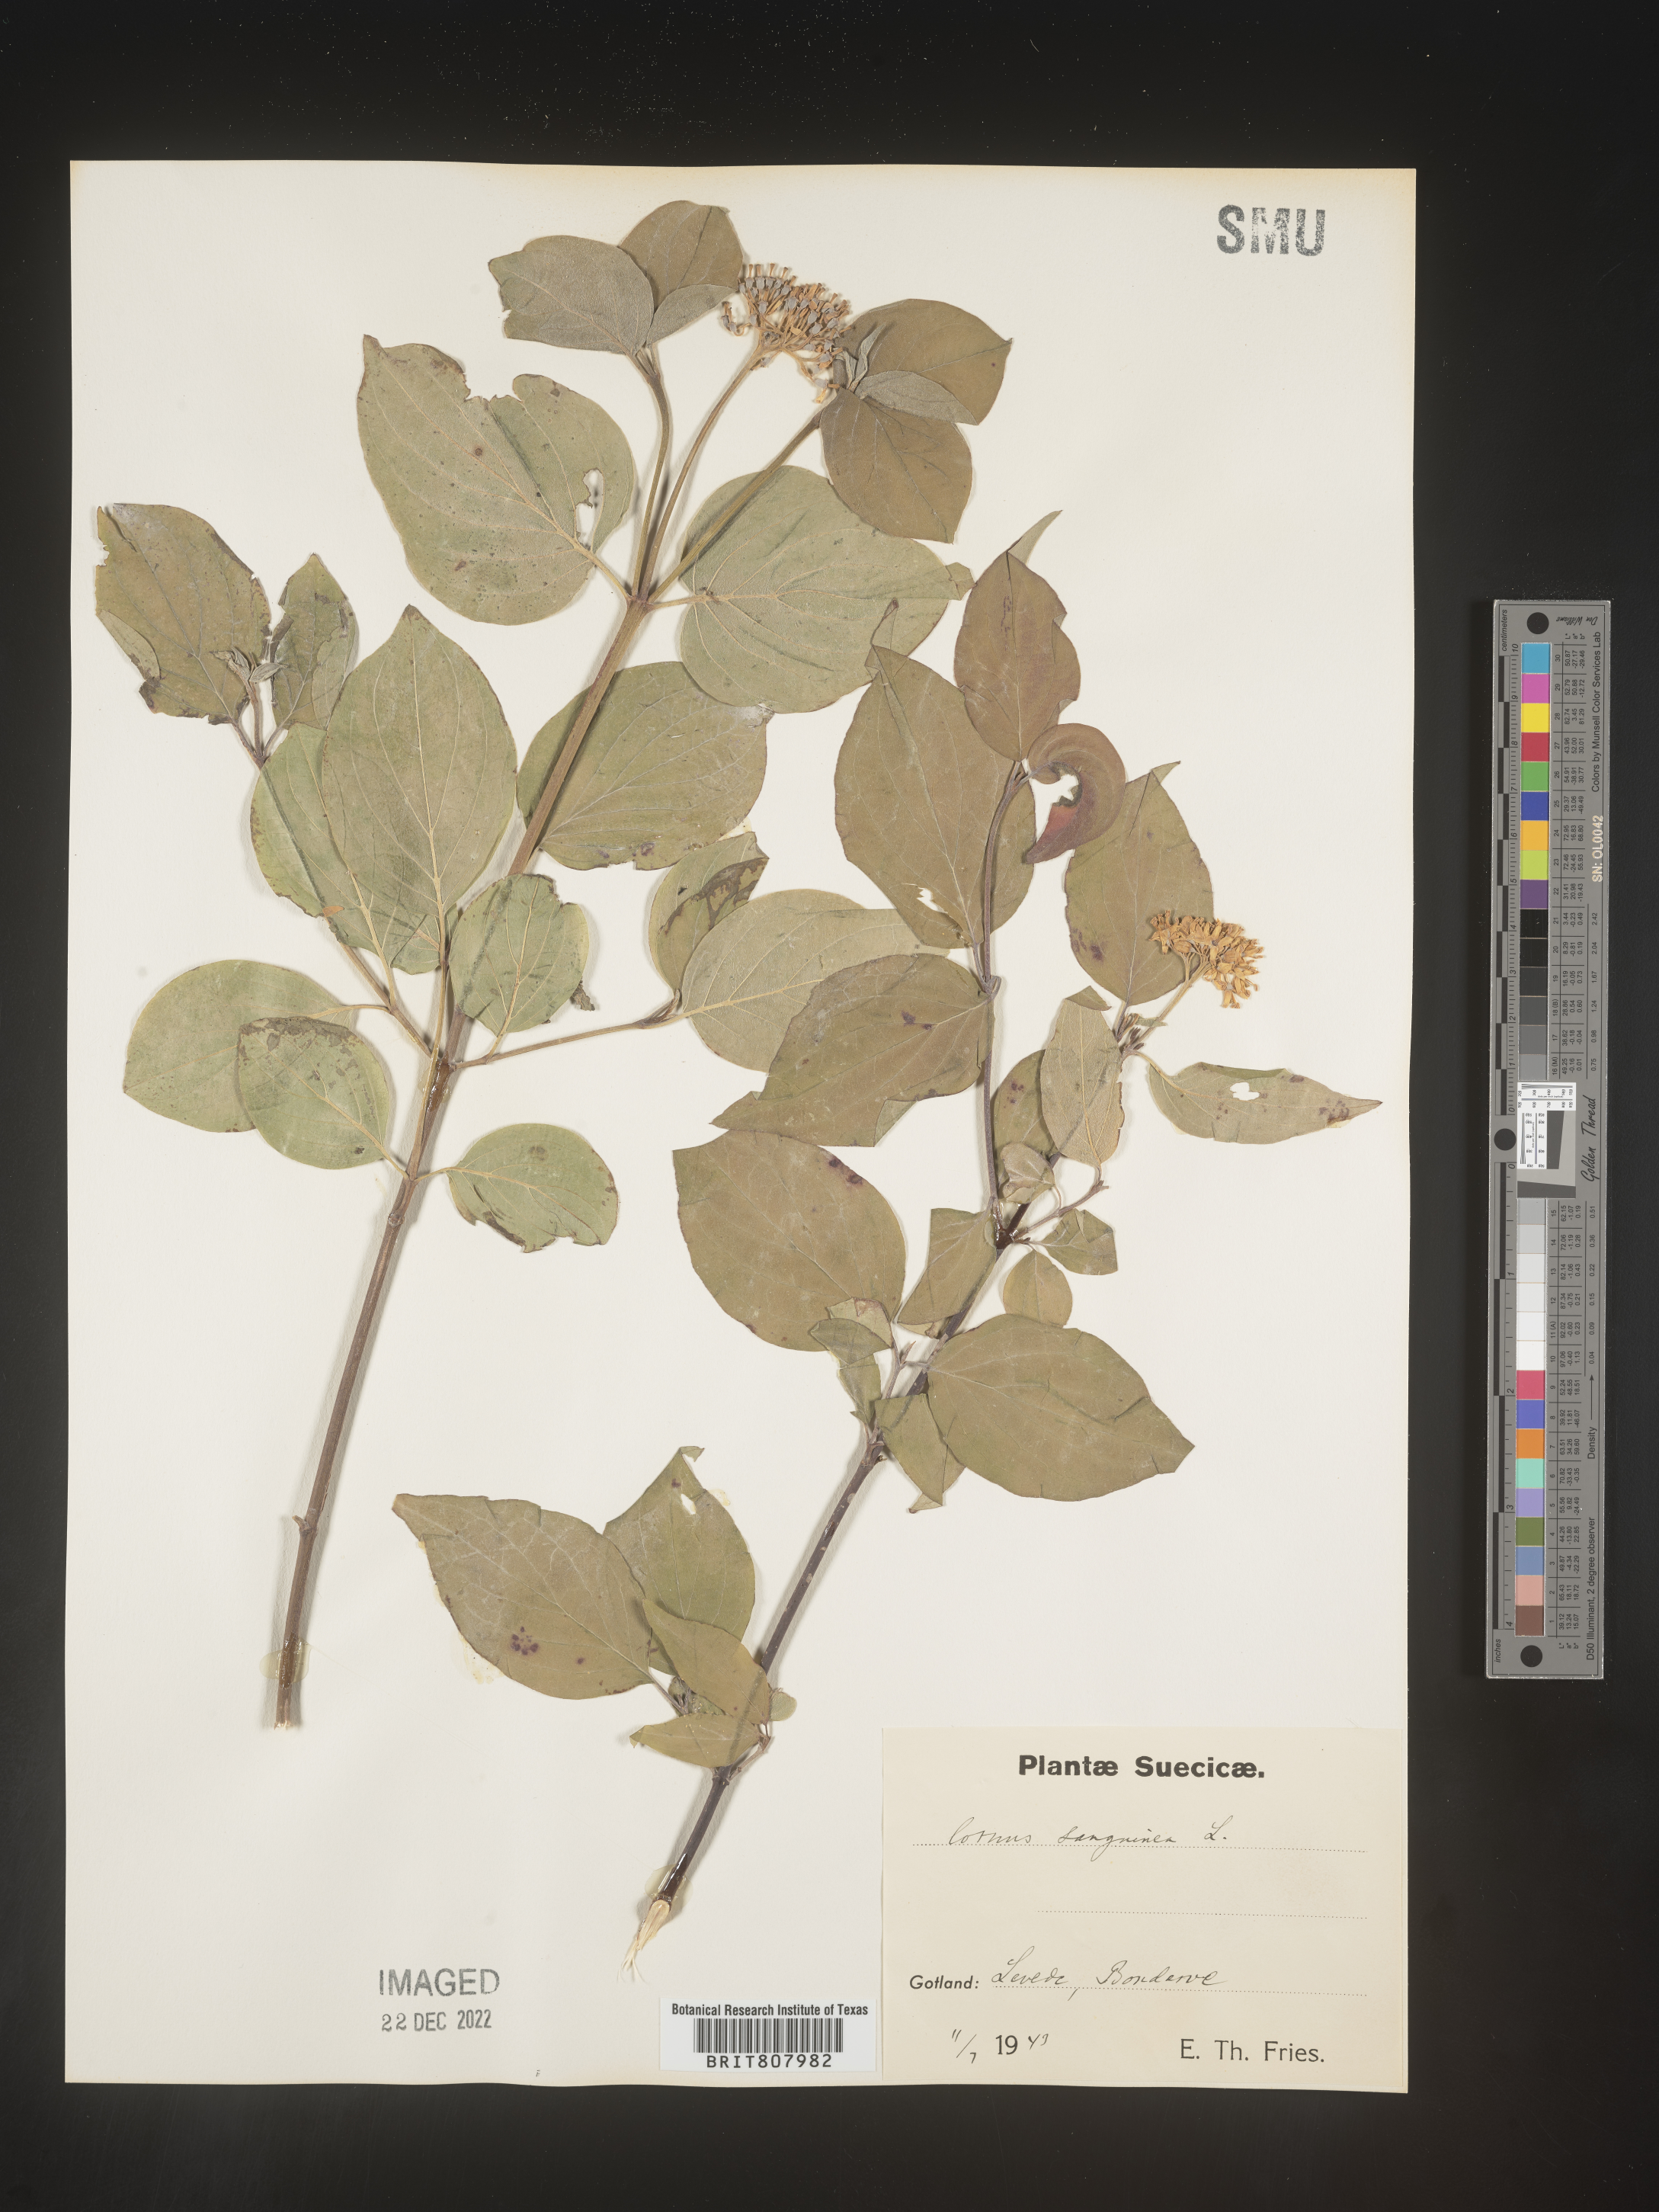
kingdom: Plantae
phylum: Tracheophyta
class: Magnoliopsida
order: Cornales
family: Cornaceae
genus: Cornus
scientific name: Cornus
